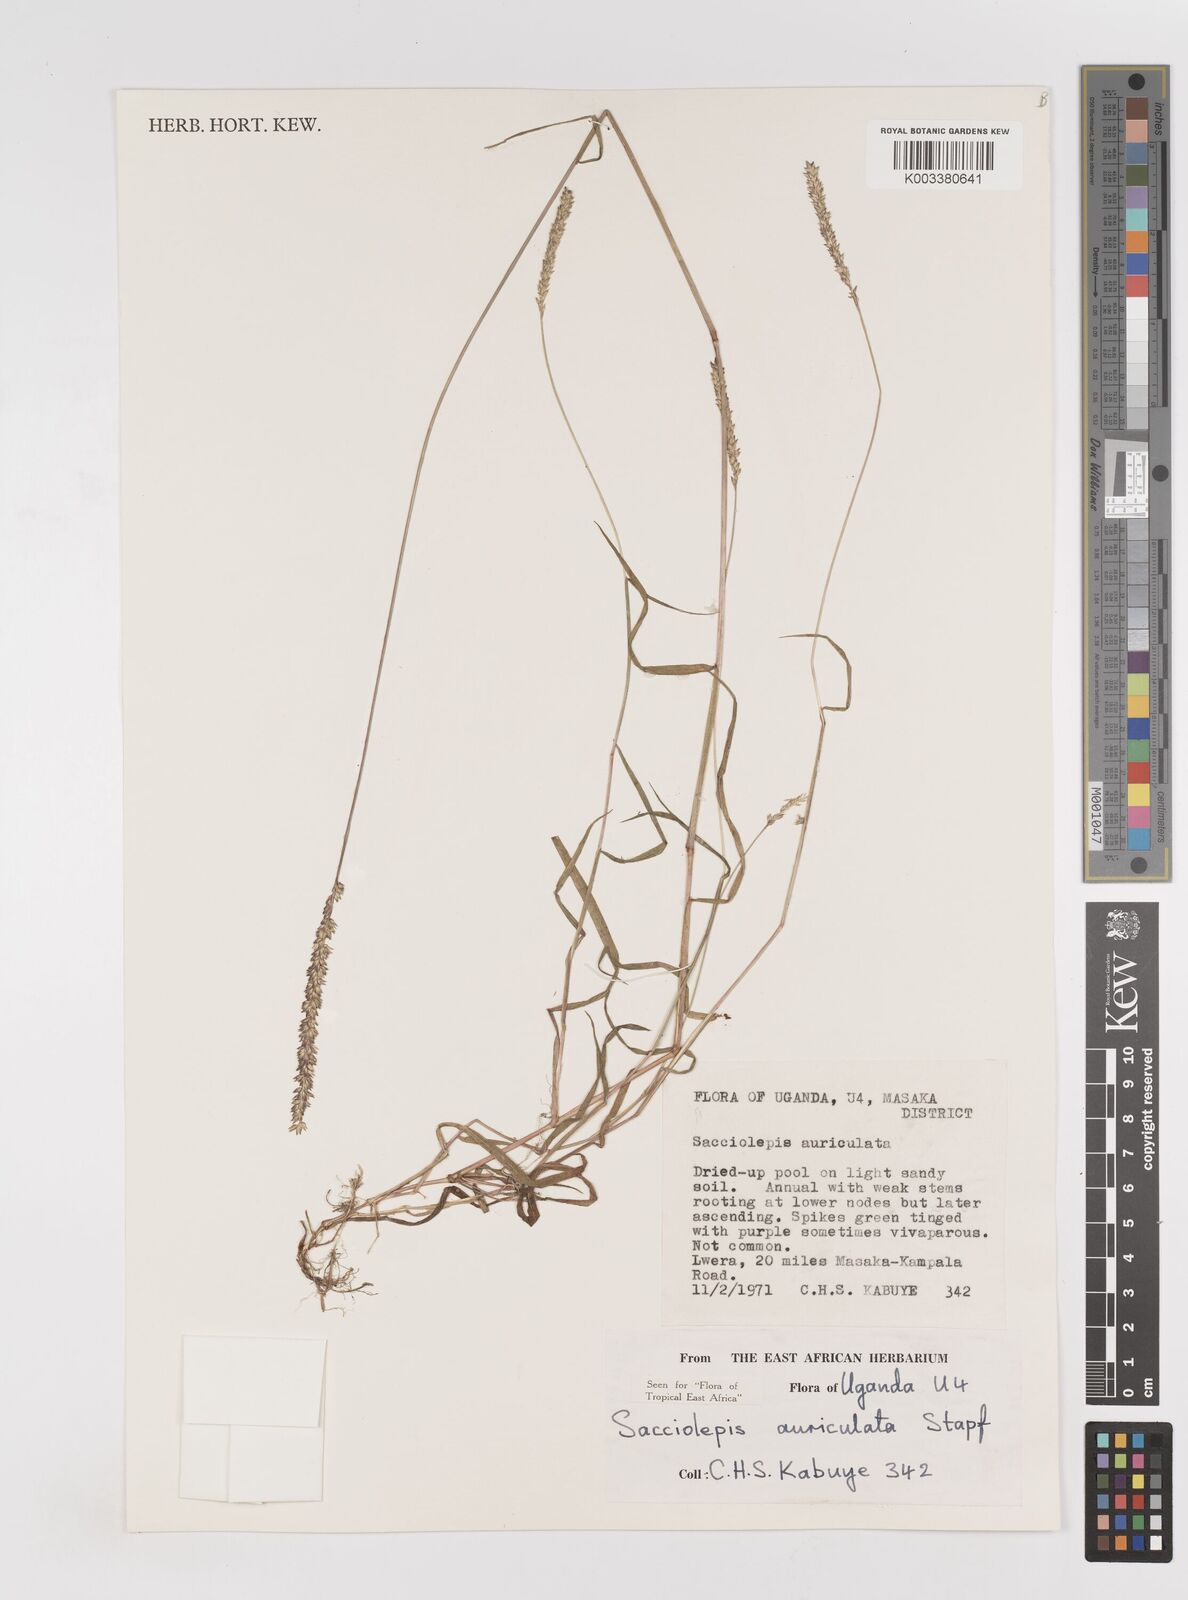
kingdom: Plantae
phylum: Tracheophyta
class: Liliopsida
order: Poales
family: Poaceae
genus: Sacciolepis
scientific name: Sacciolepis indica
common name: Glenwoodgrass
